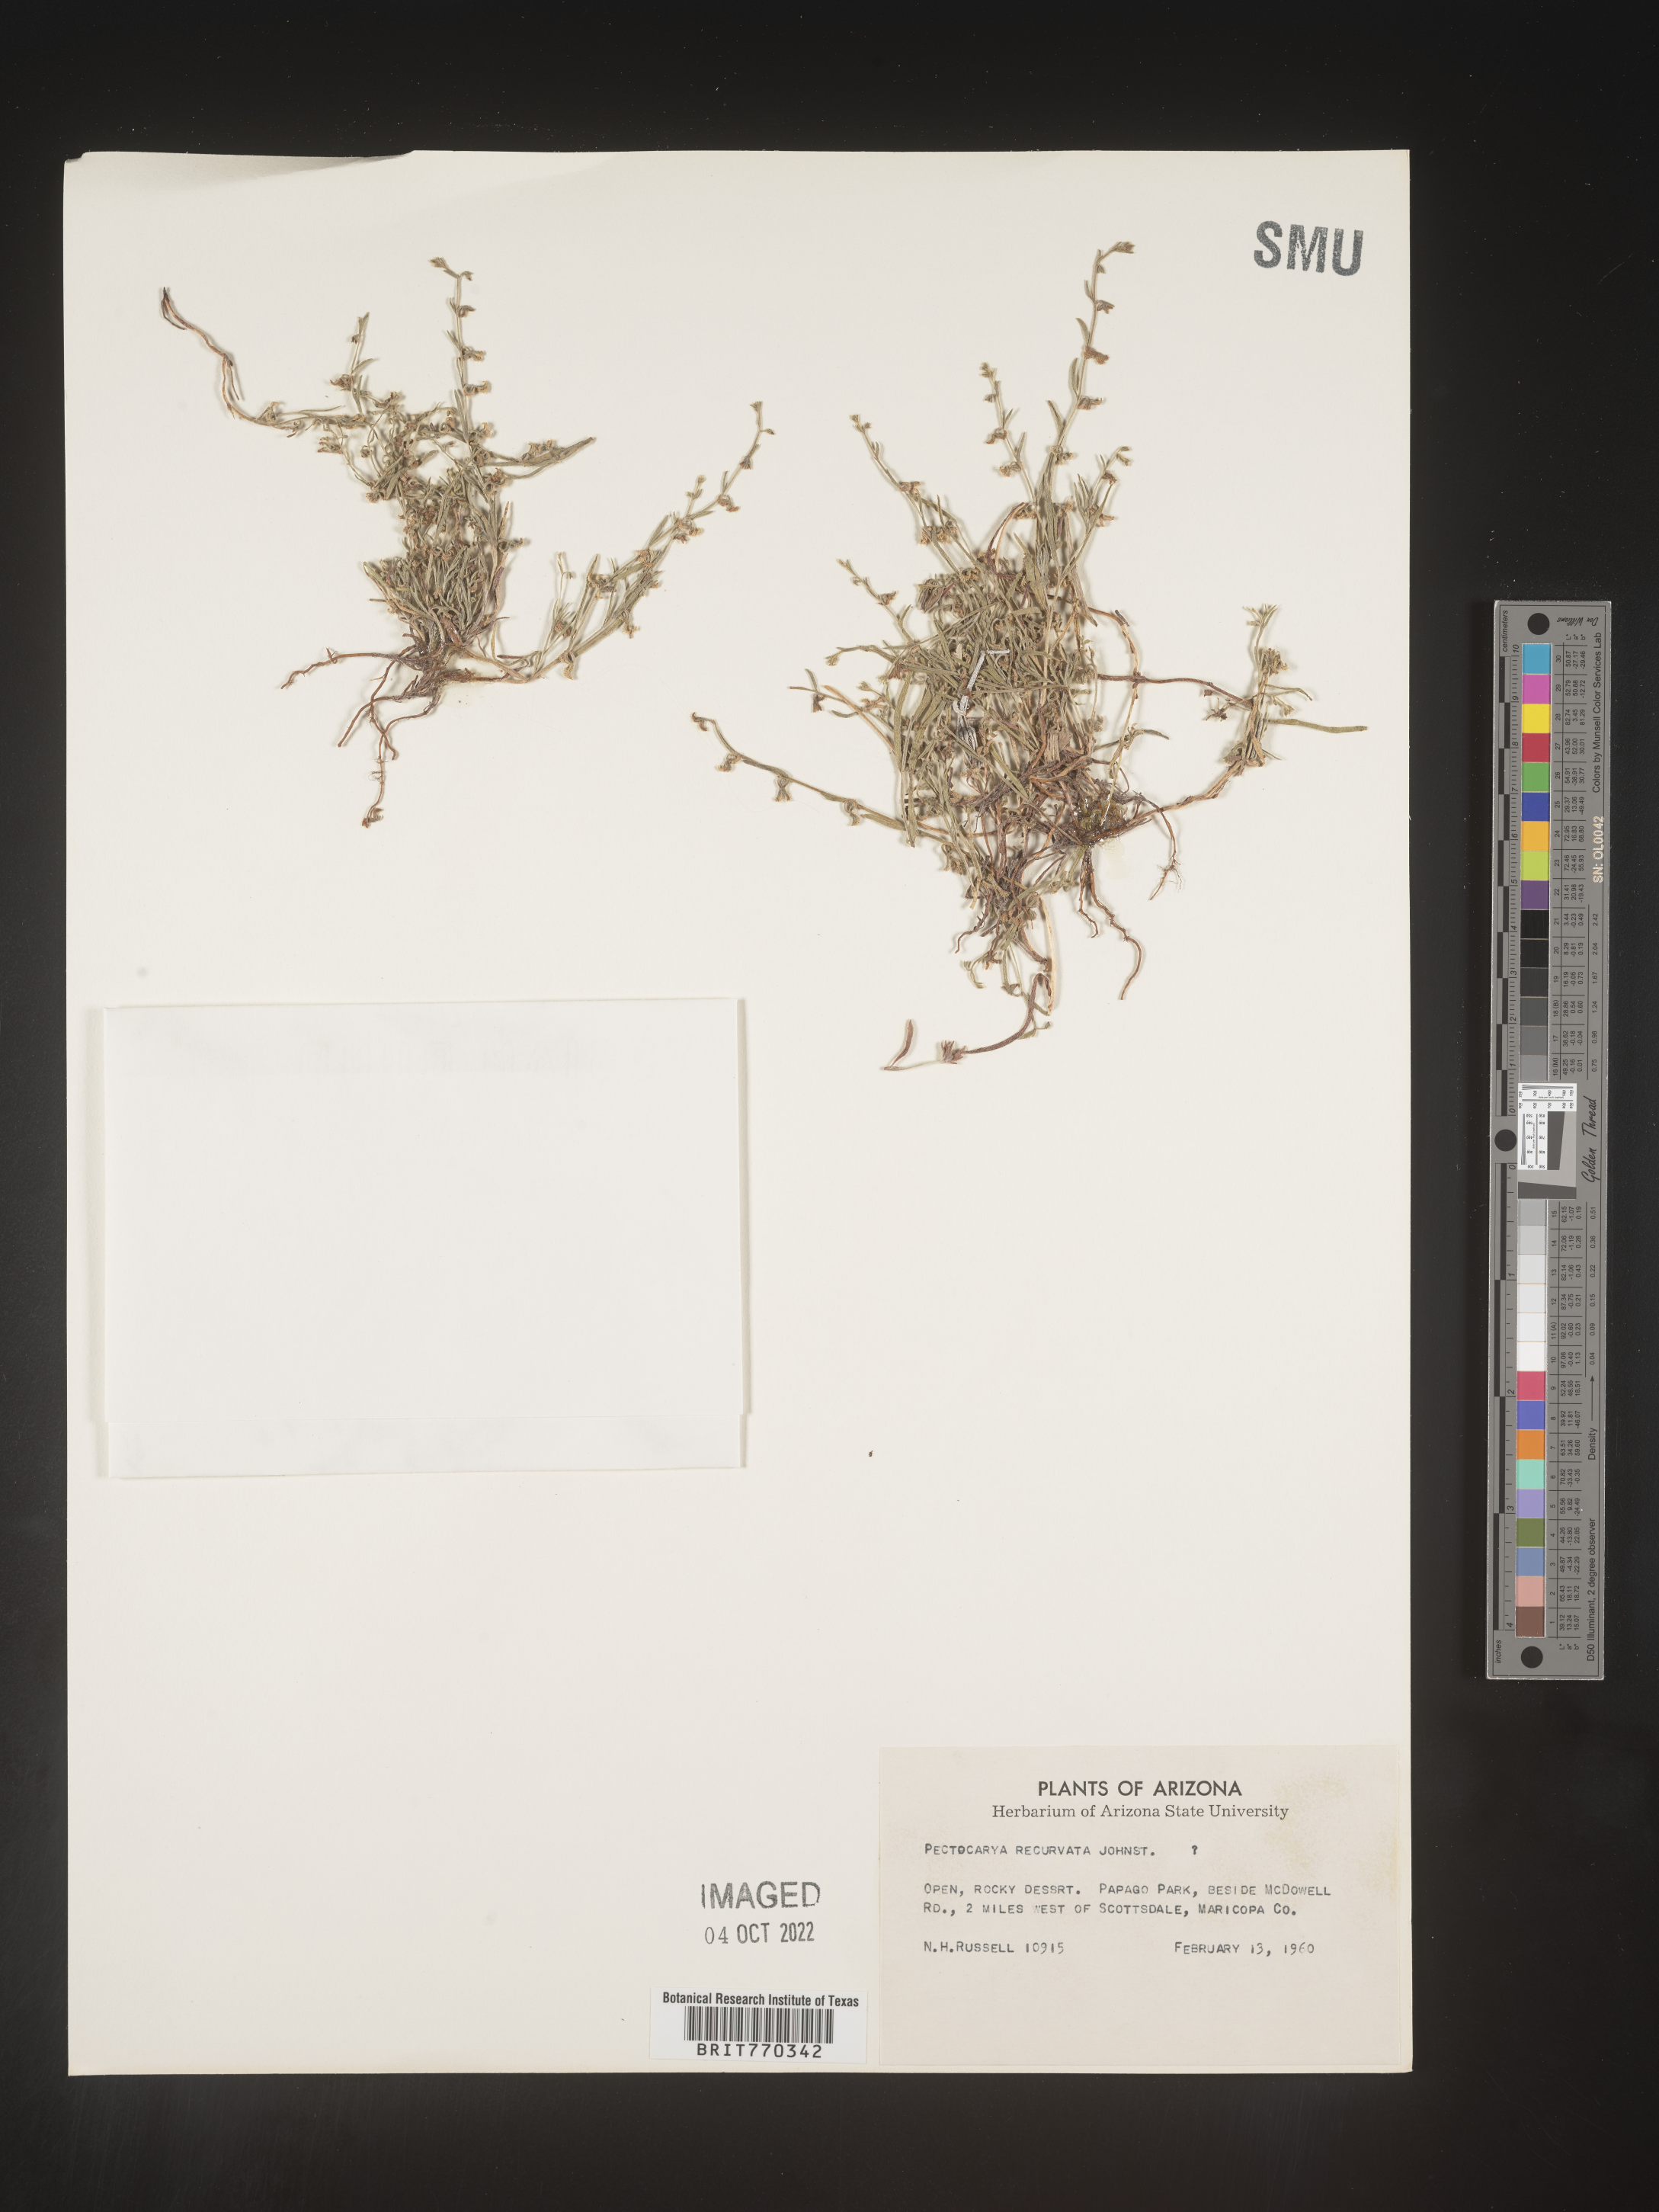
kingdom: Plantae
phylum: Tracheophyta
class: Magnoliopsida
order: Boraginales
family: Boraginaceae
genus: Pectocarya
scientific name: Pectocarya
